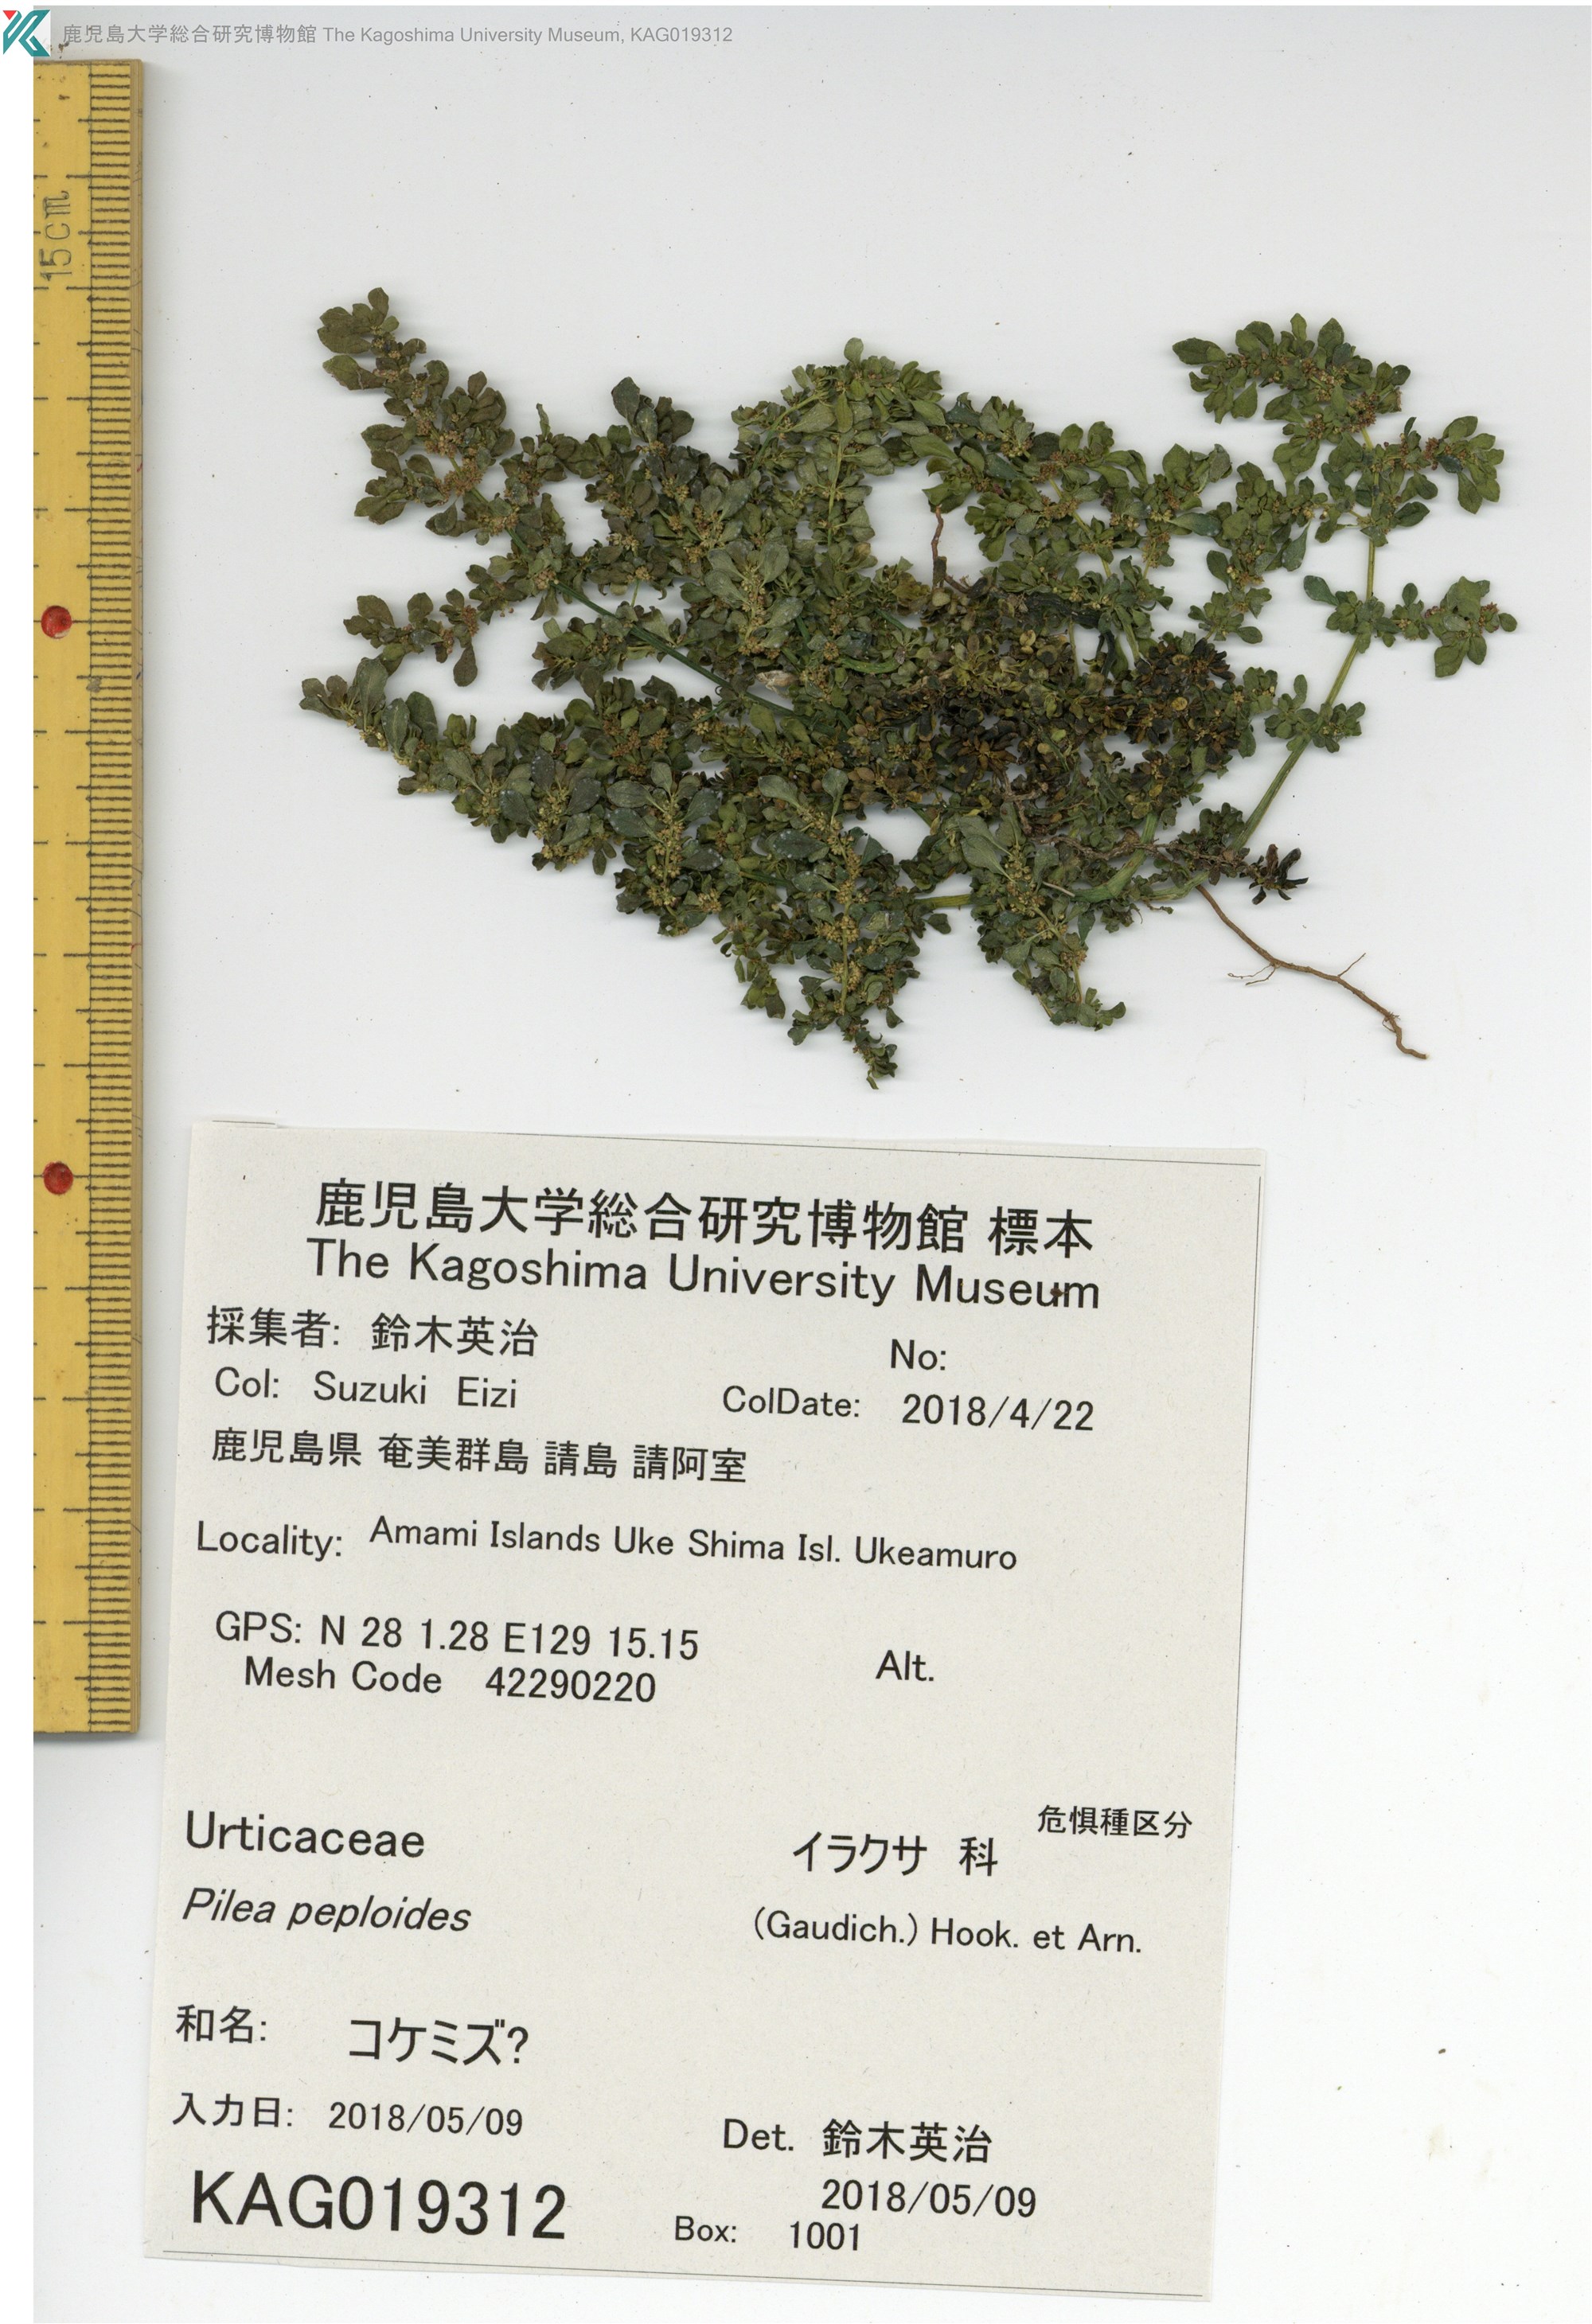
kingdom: Plantae
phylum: Tracheophyta
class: Magnoliopsida
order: Rosales
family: Urticaceae
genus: Pilea
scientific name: Pilea peploides
